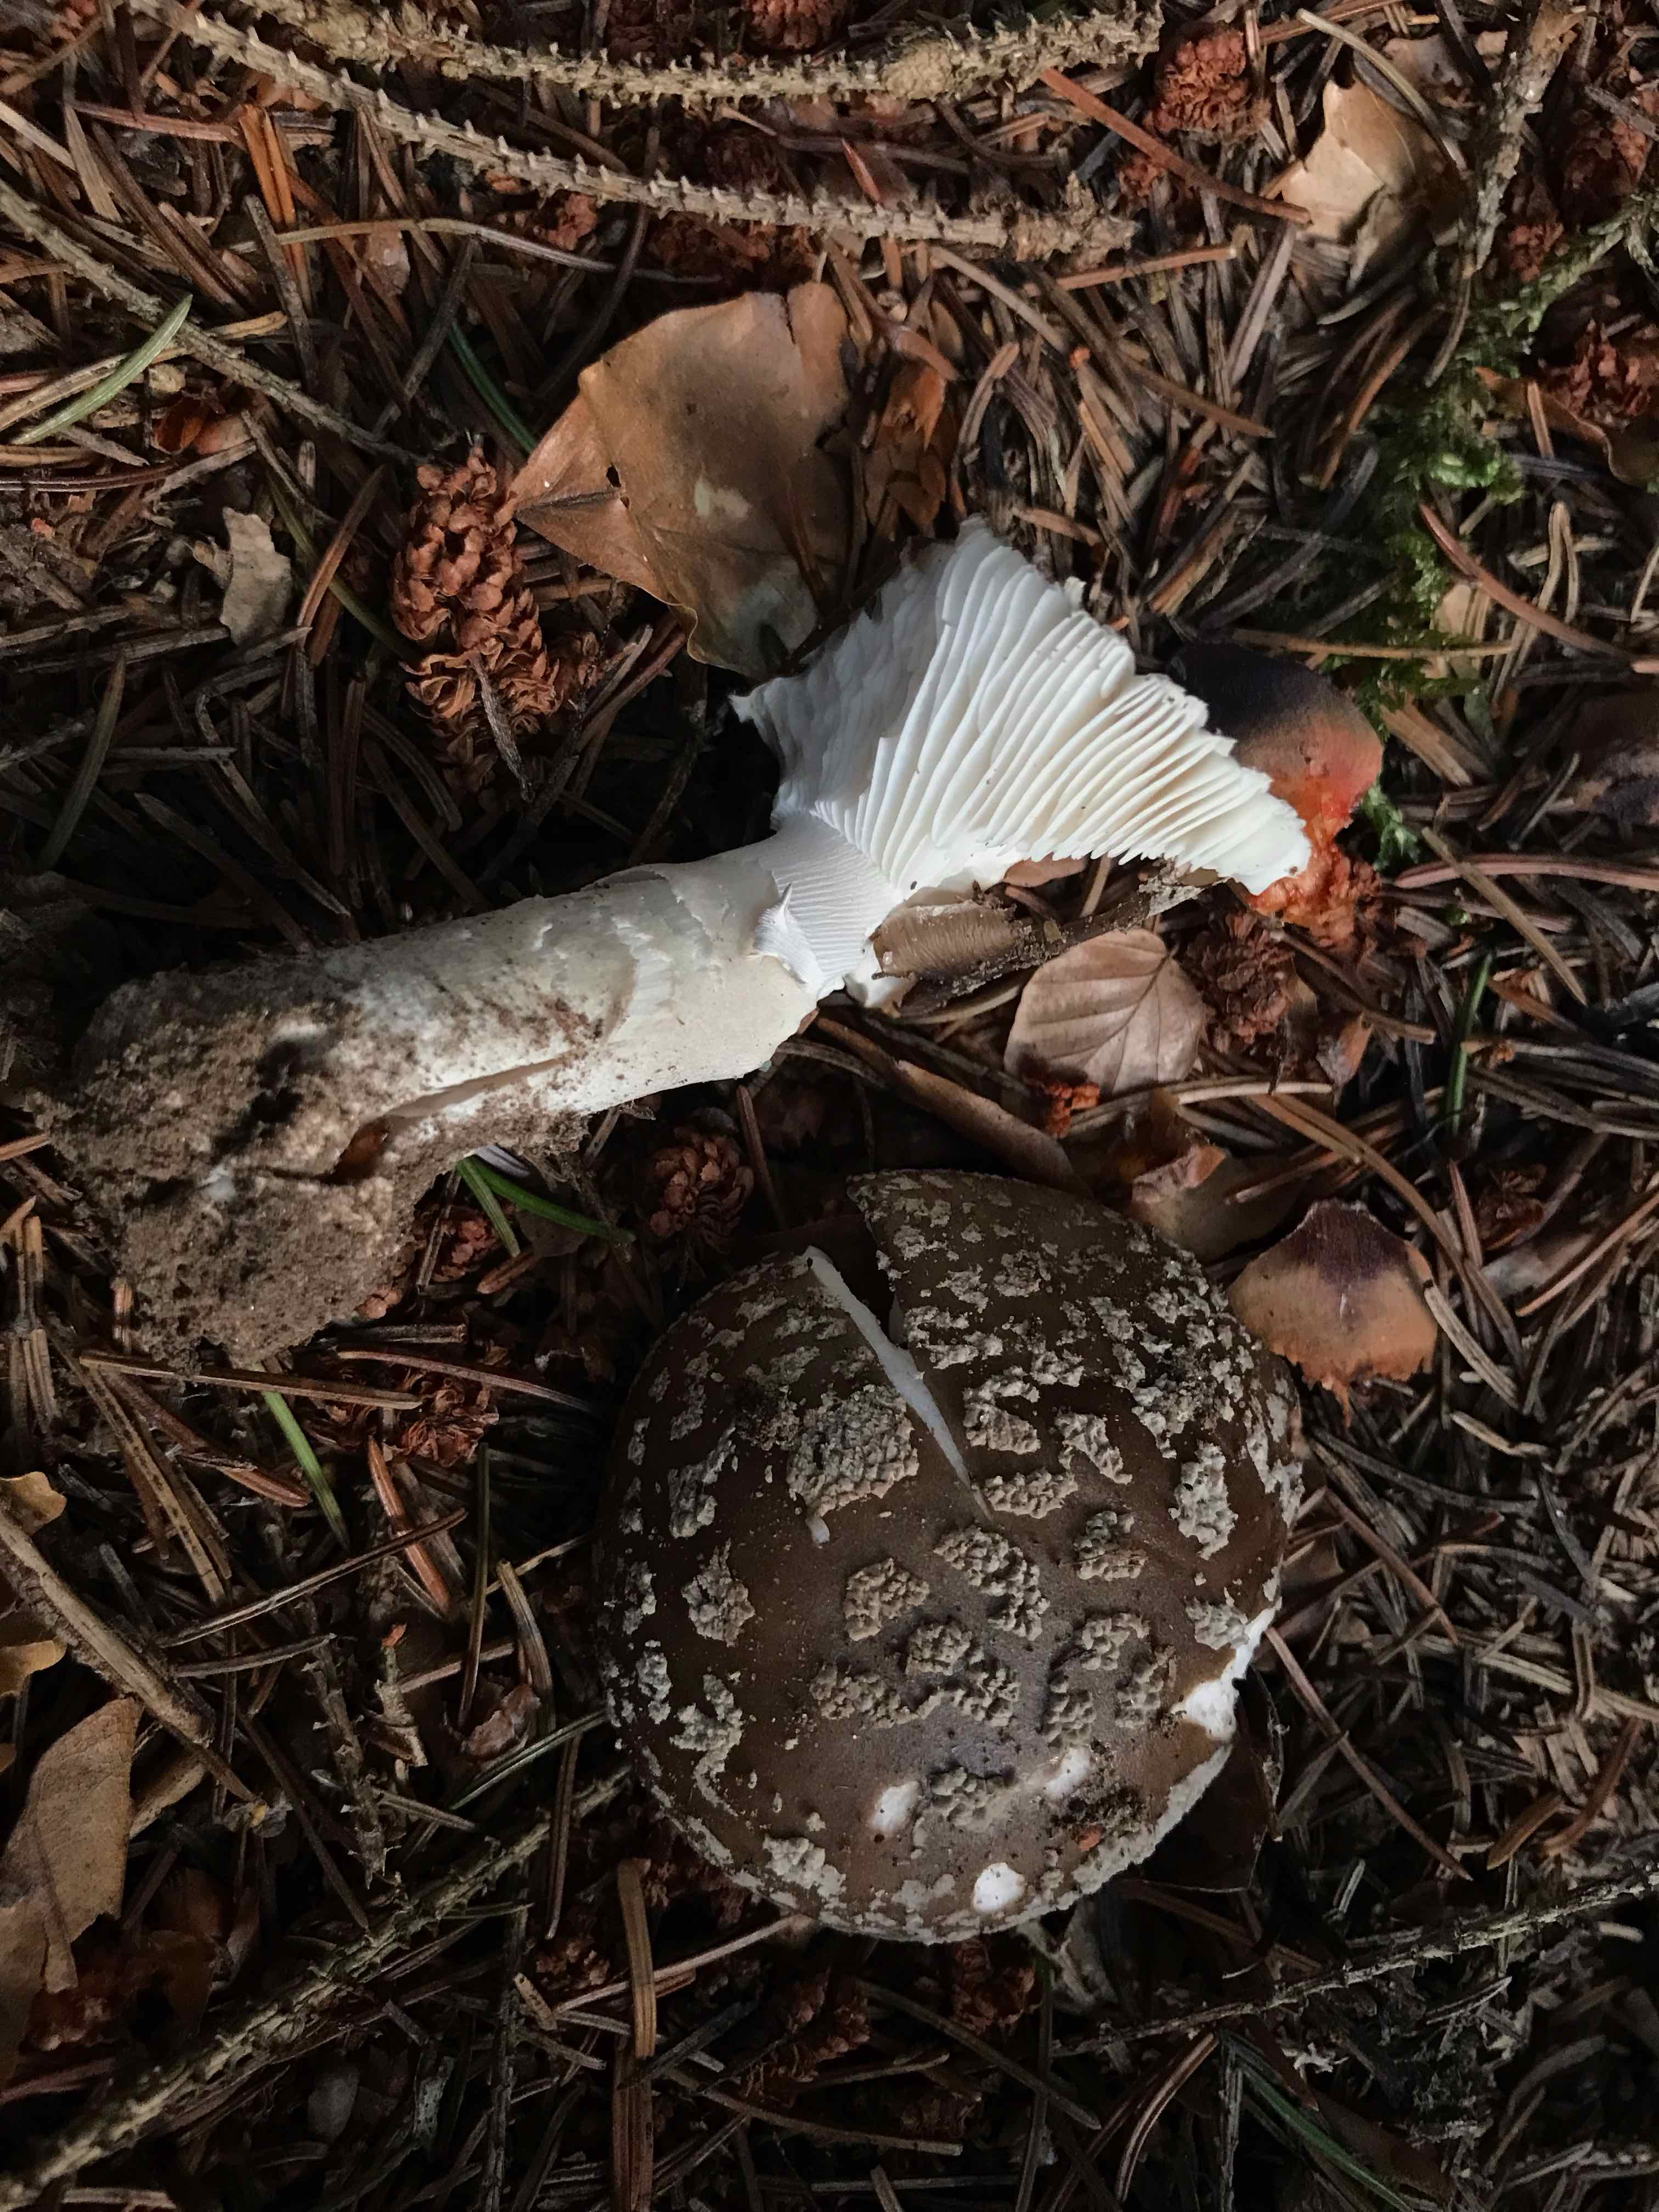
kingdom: Fungi
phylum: Basidiomycota
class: Agaricomycetes
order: Agaricales
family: Amanitaceae
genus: Amanita
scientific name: Amanita
